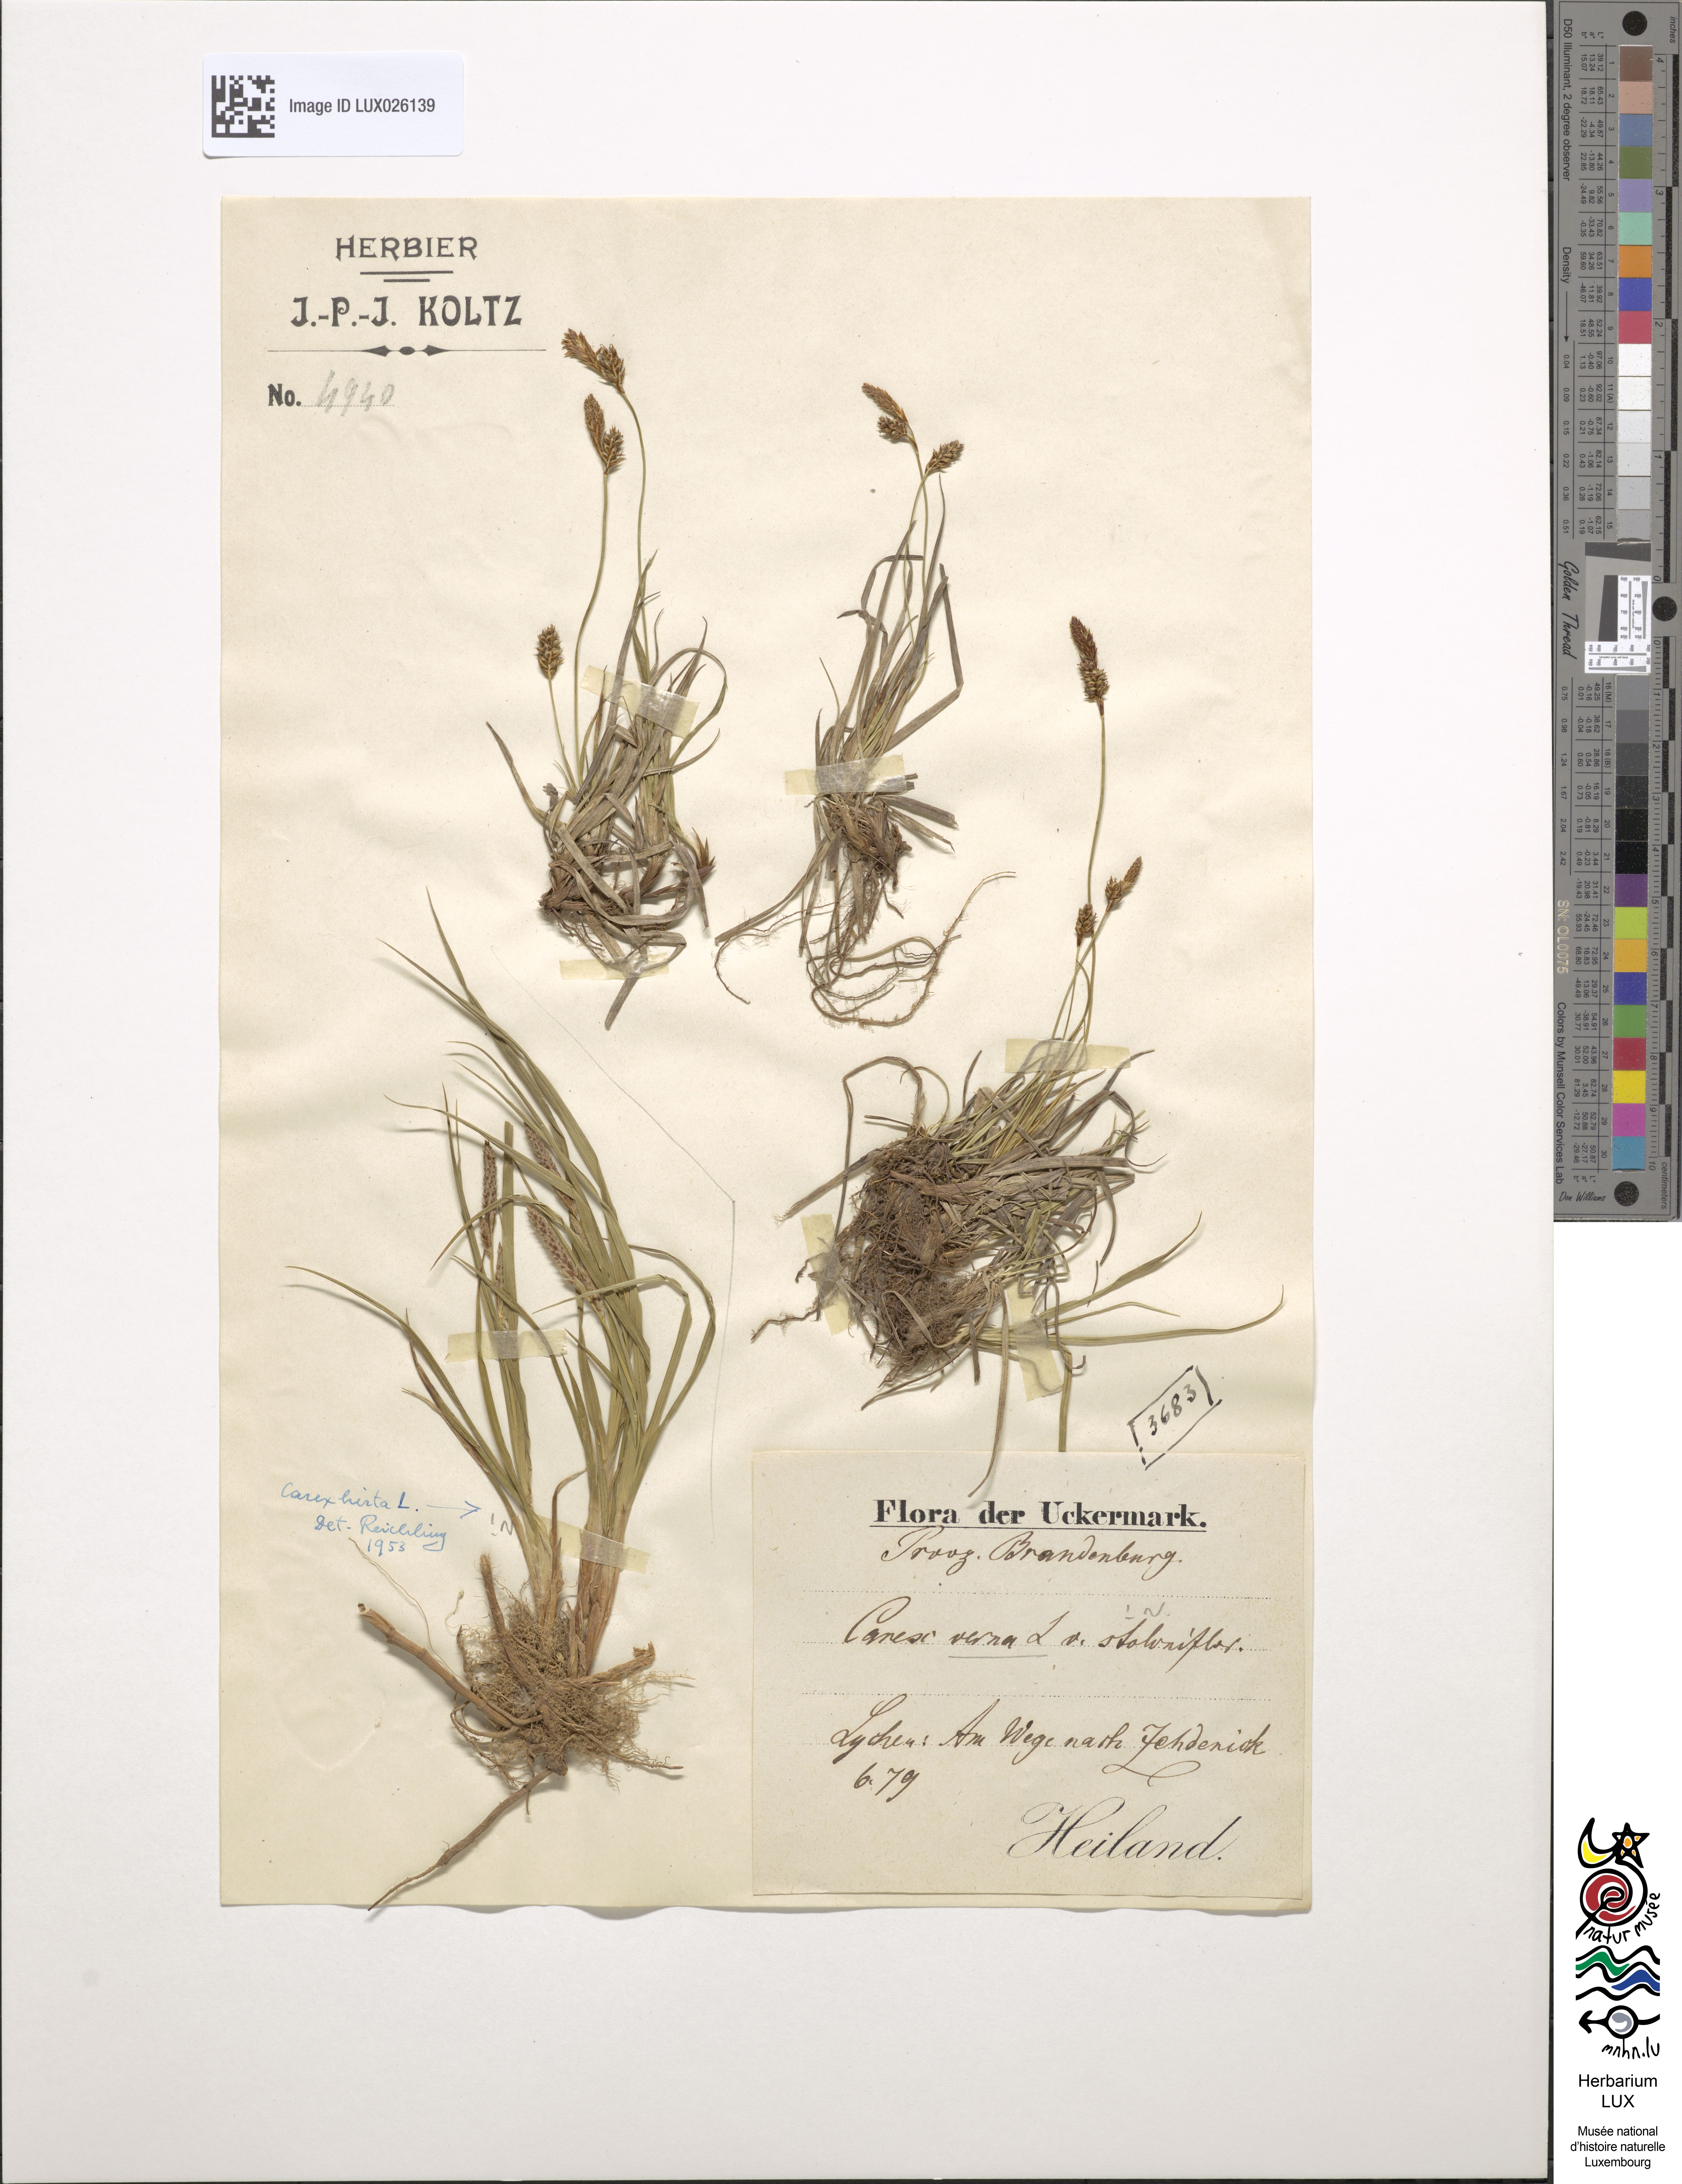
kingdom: Plantae
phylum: Tracheophyta
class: Liliopsida
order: Poales
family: Cyperaceae
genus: Carex
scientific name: Carex caryophyllea
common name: Spring sedge
